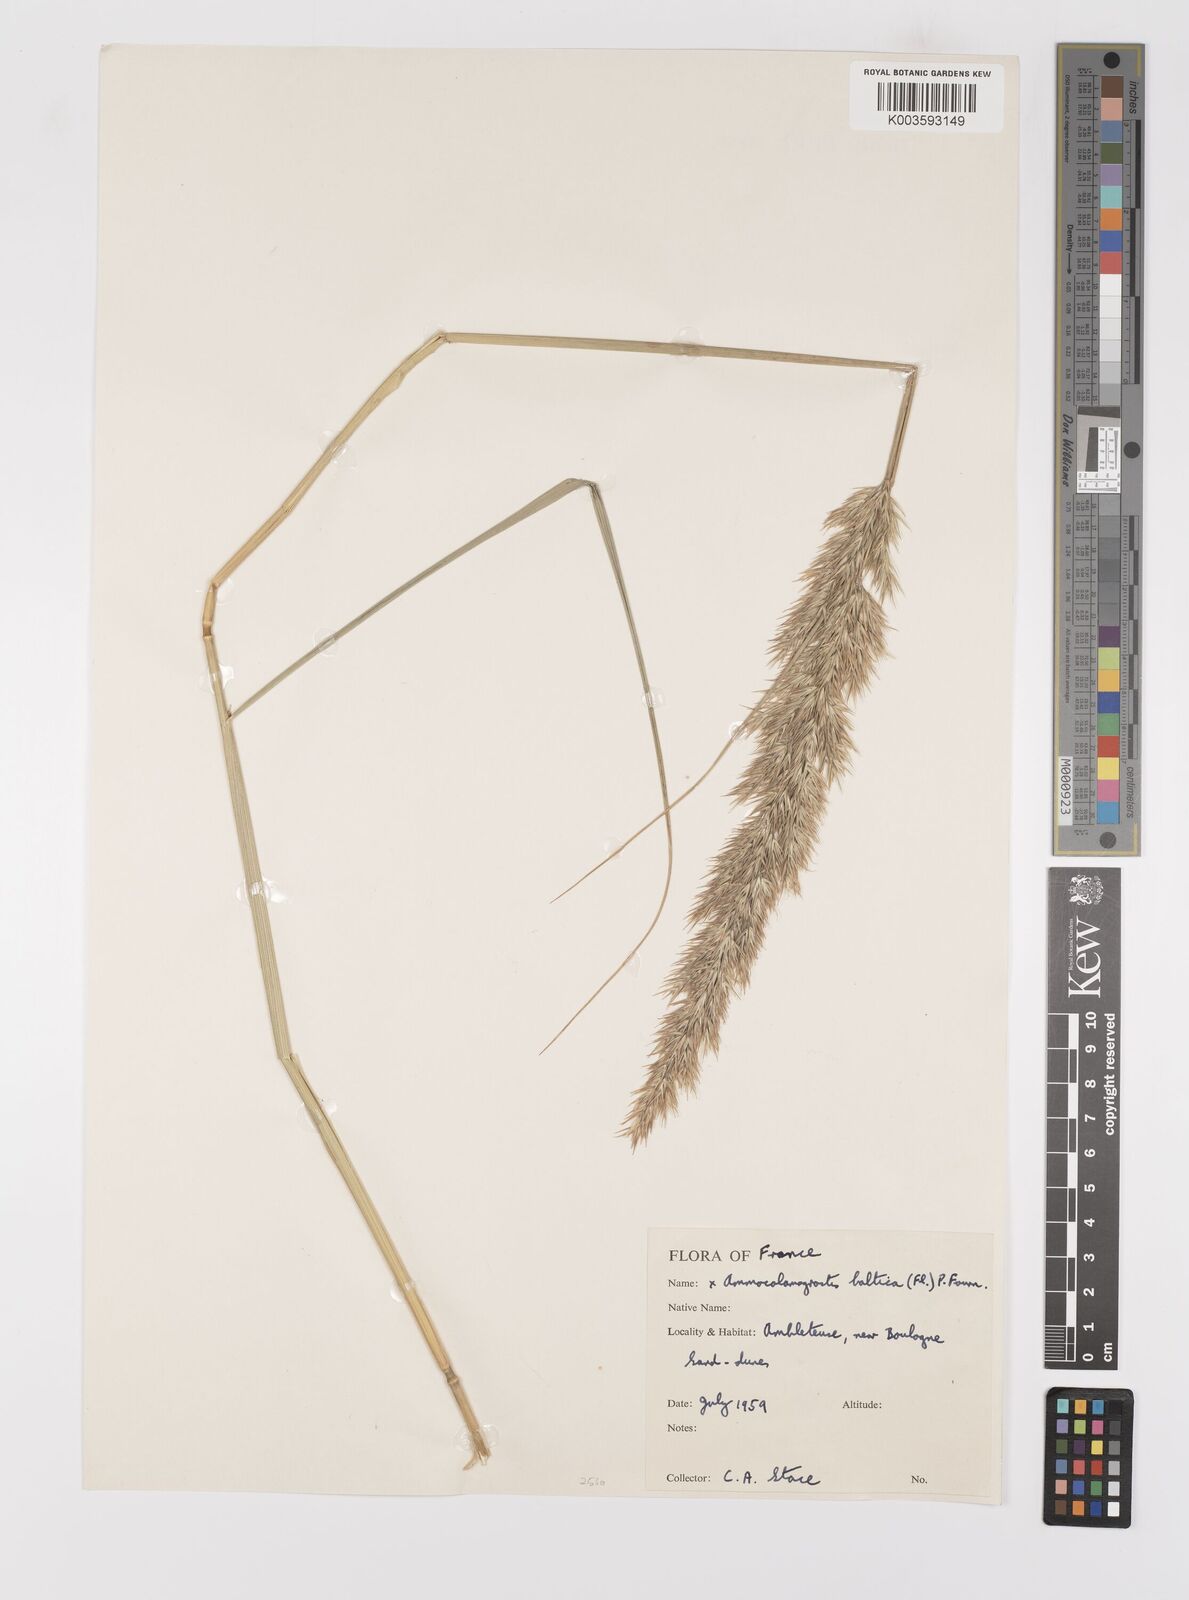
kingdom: Plantae
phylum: Tracheophyta
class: Liliopsida
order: Poales
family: Poaceae
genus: Calamagrostis
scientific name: Calamagrostis baltica
